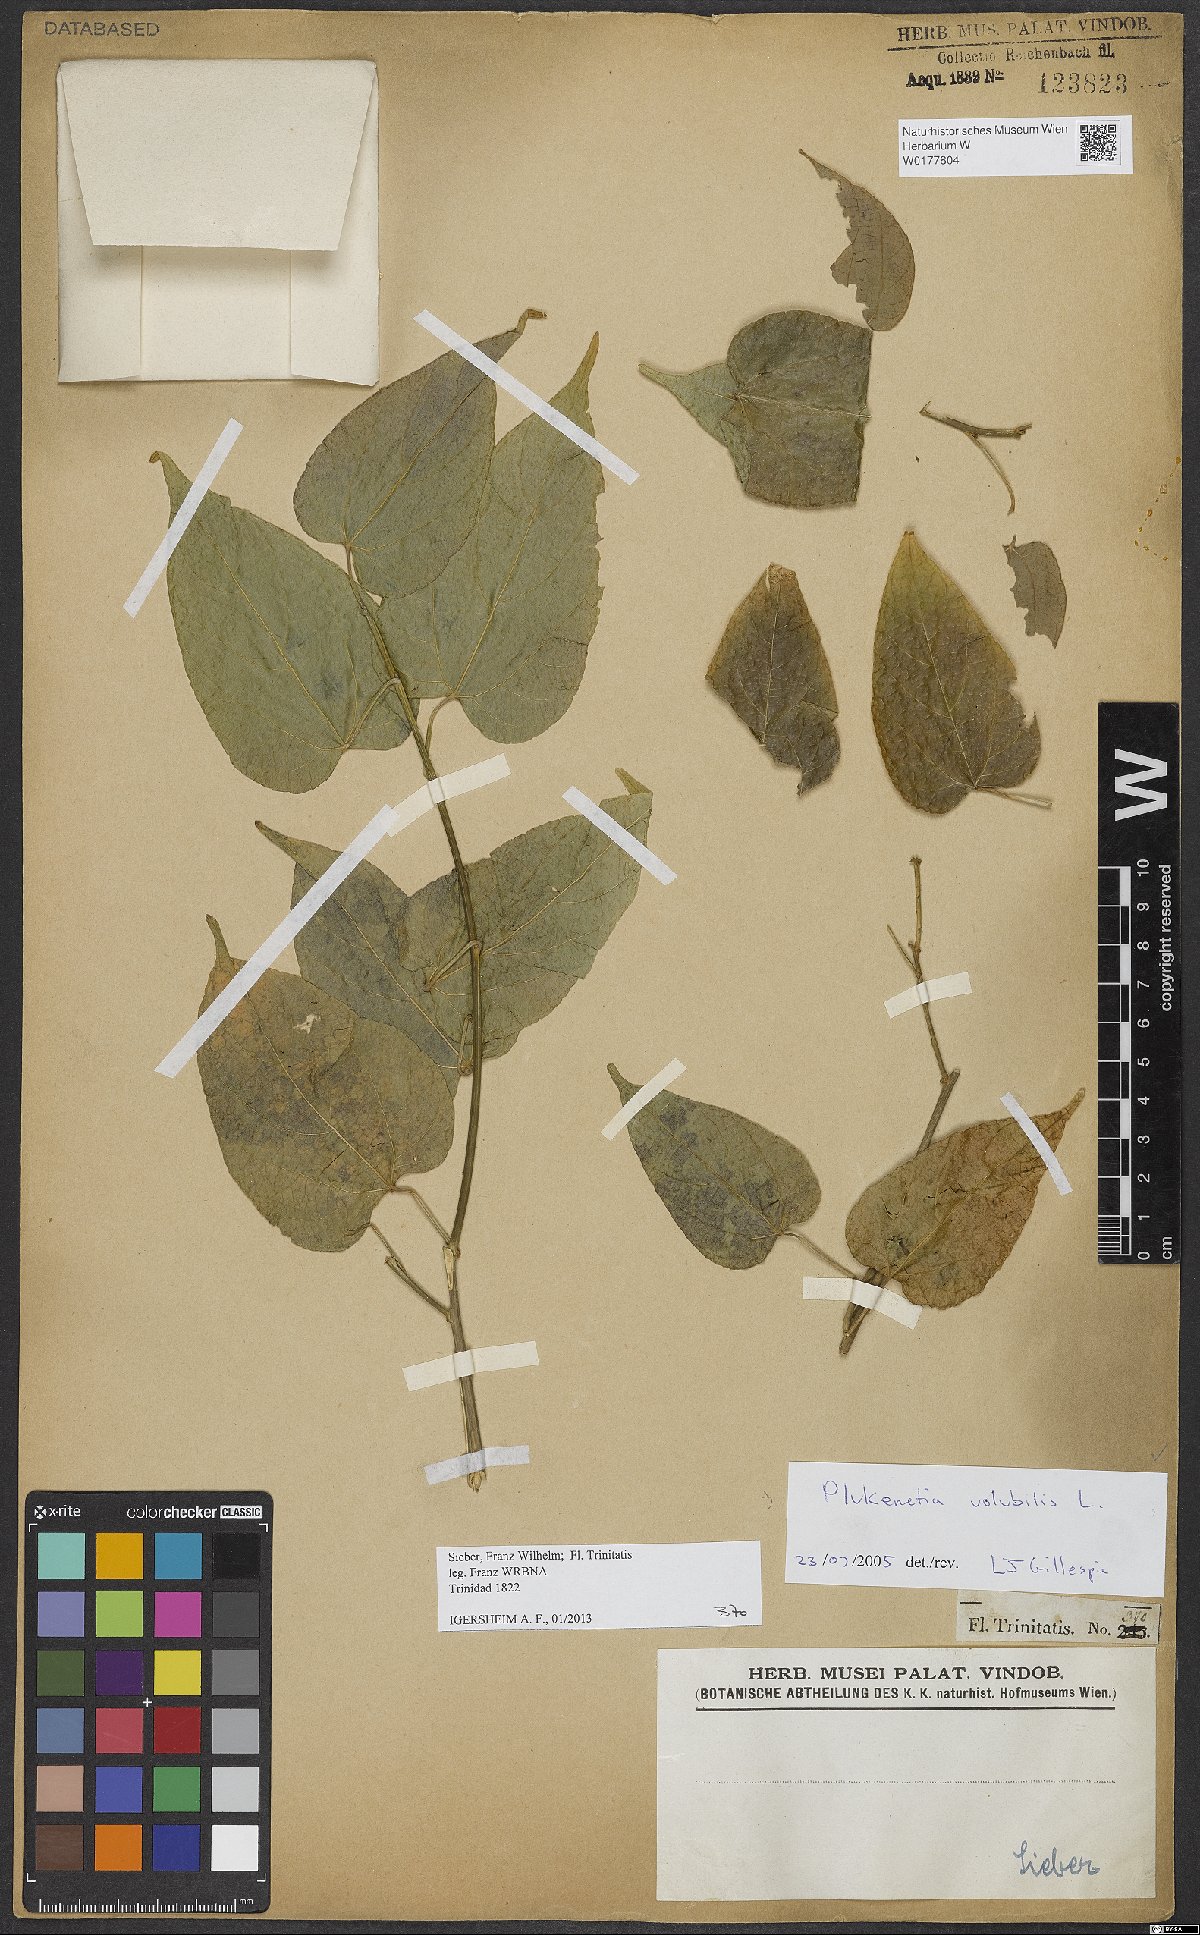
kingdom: Plantae
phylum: Tracheophyta
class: Magnoliopsida
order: Malpighiales
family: Euphorbiaceae
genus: Plukenetia
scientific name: Plukenetia volubilis
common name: Inca-peanut
